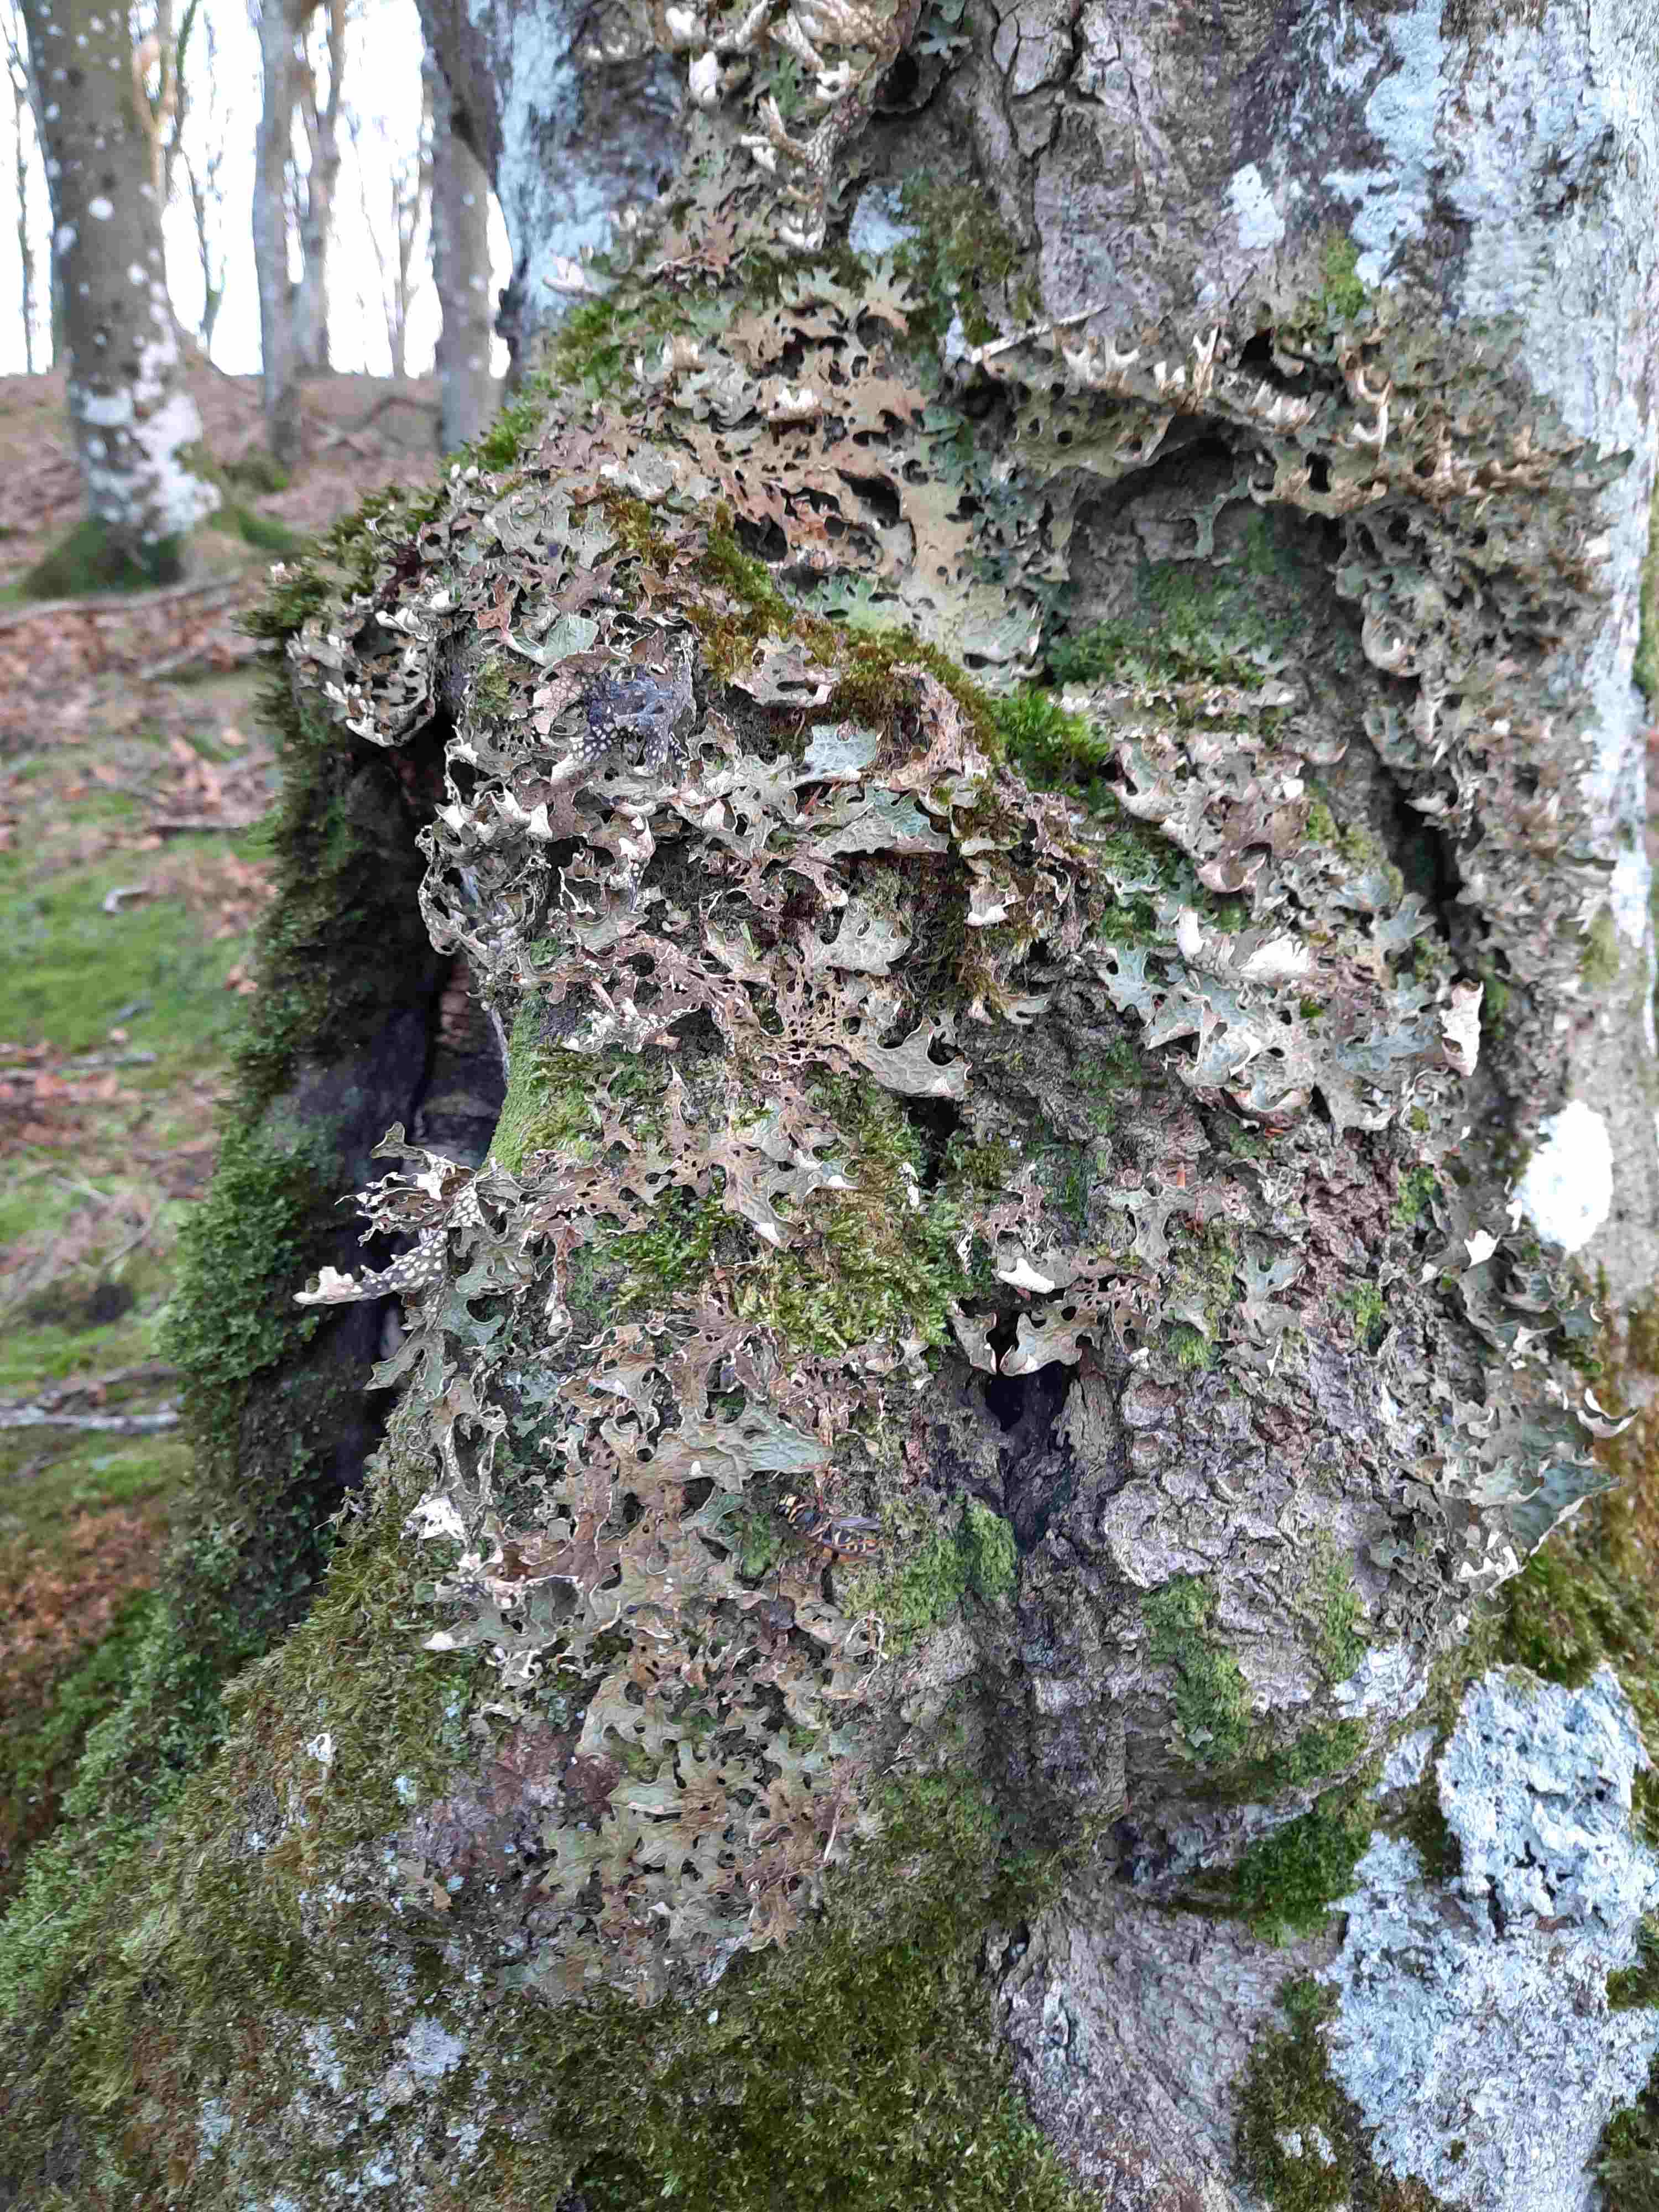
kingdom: Fungi
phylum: Ascomycota
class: Lecanoromycetes
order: Peltigerales
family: Lobariaceae
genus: Lobaria
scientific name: Lobaria pulmonaria
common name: almindelig lungelav
